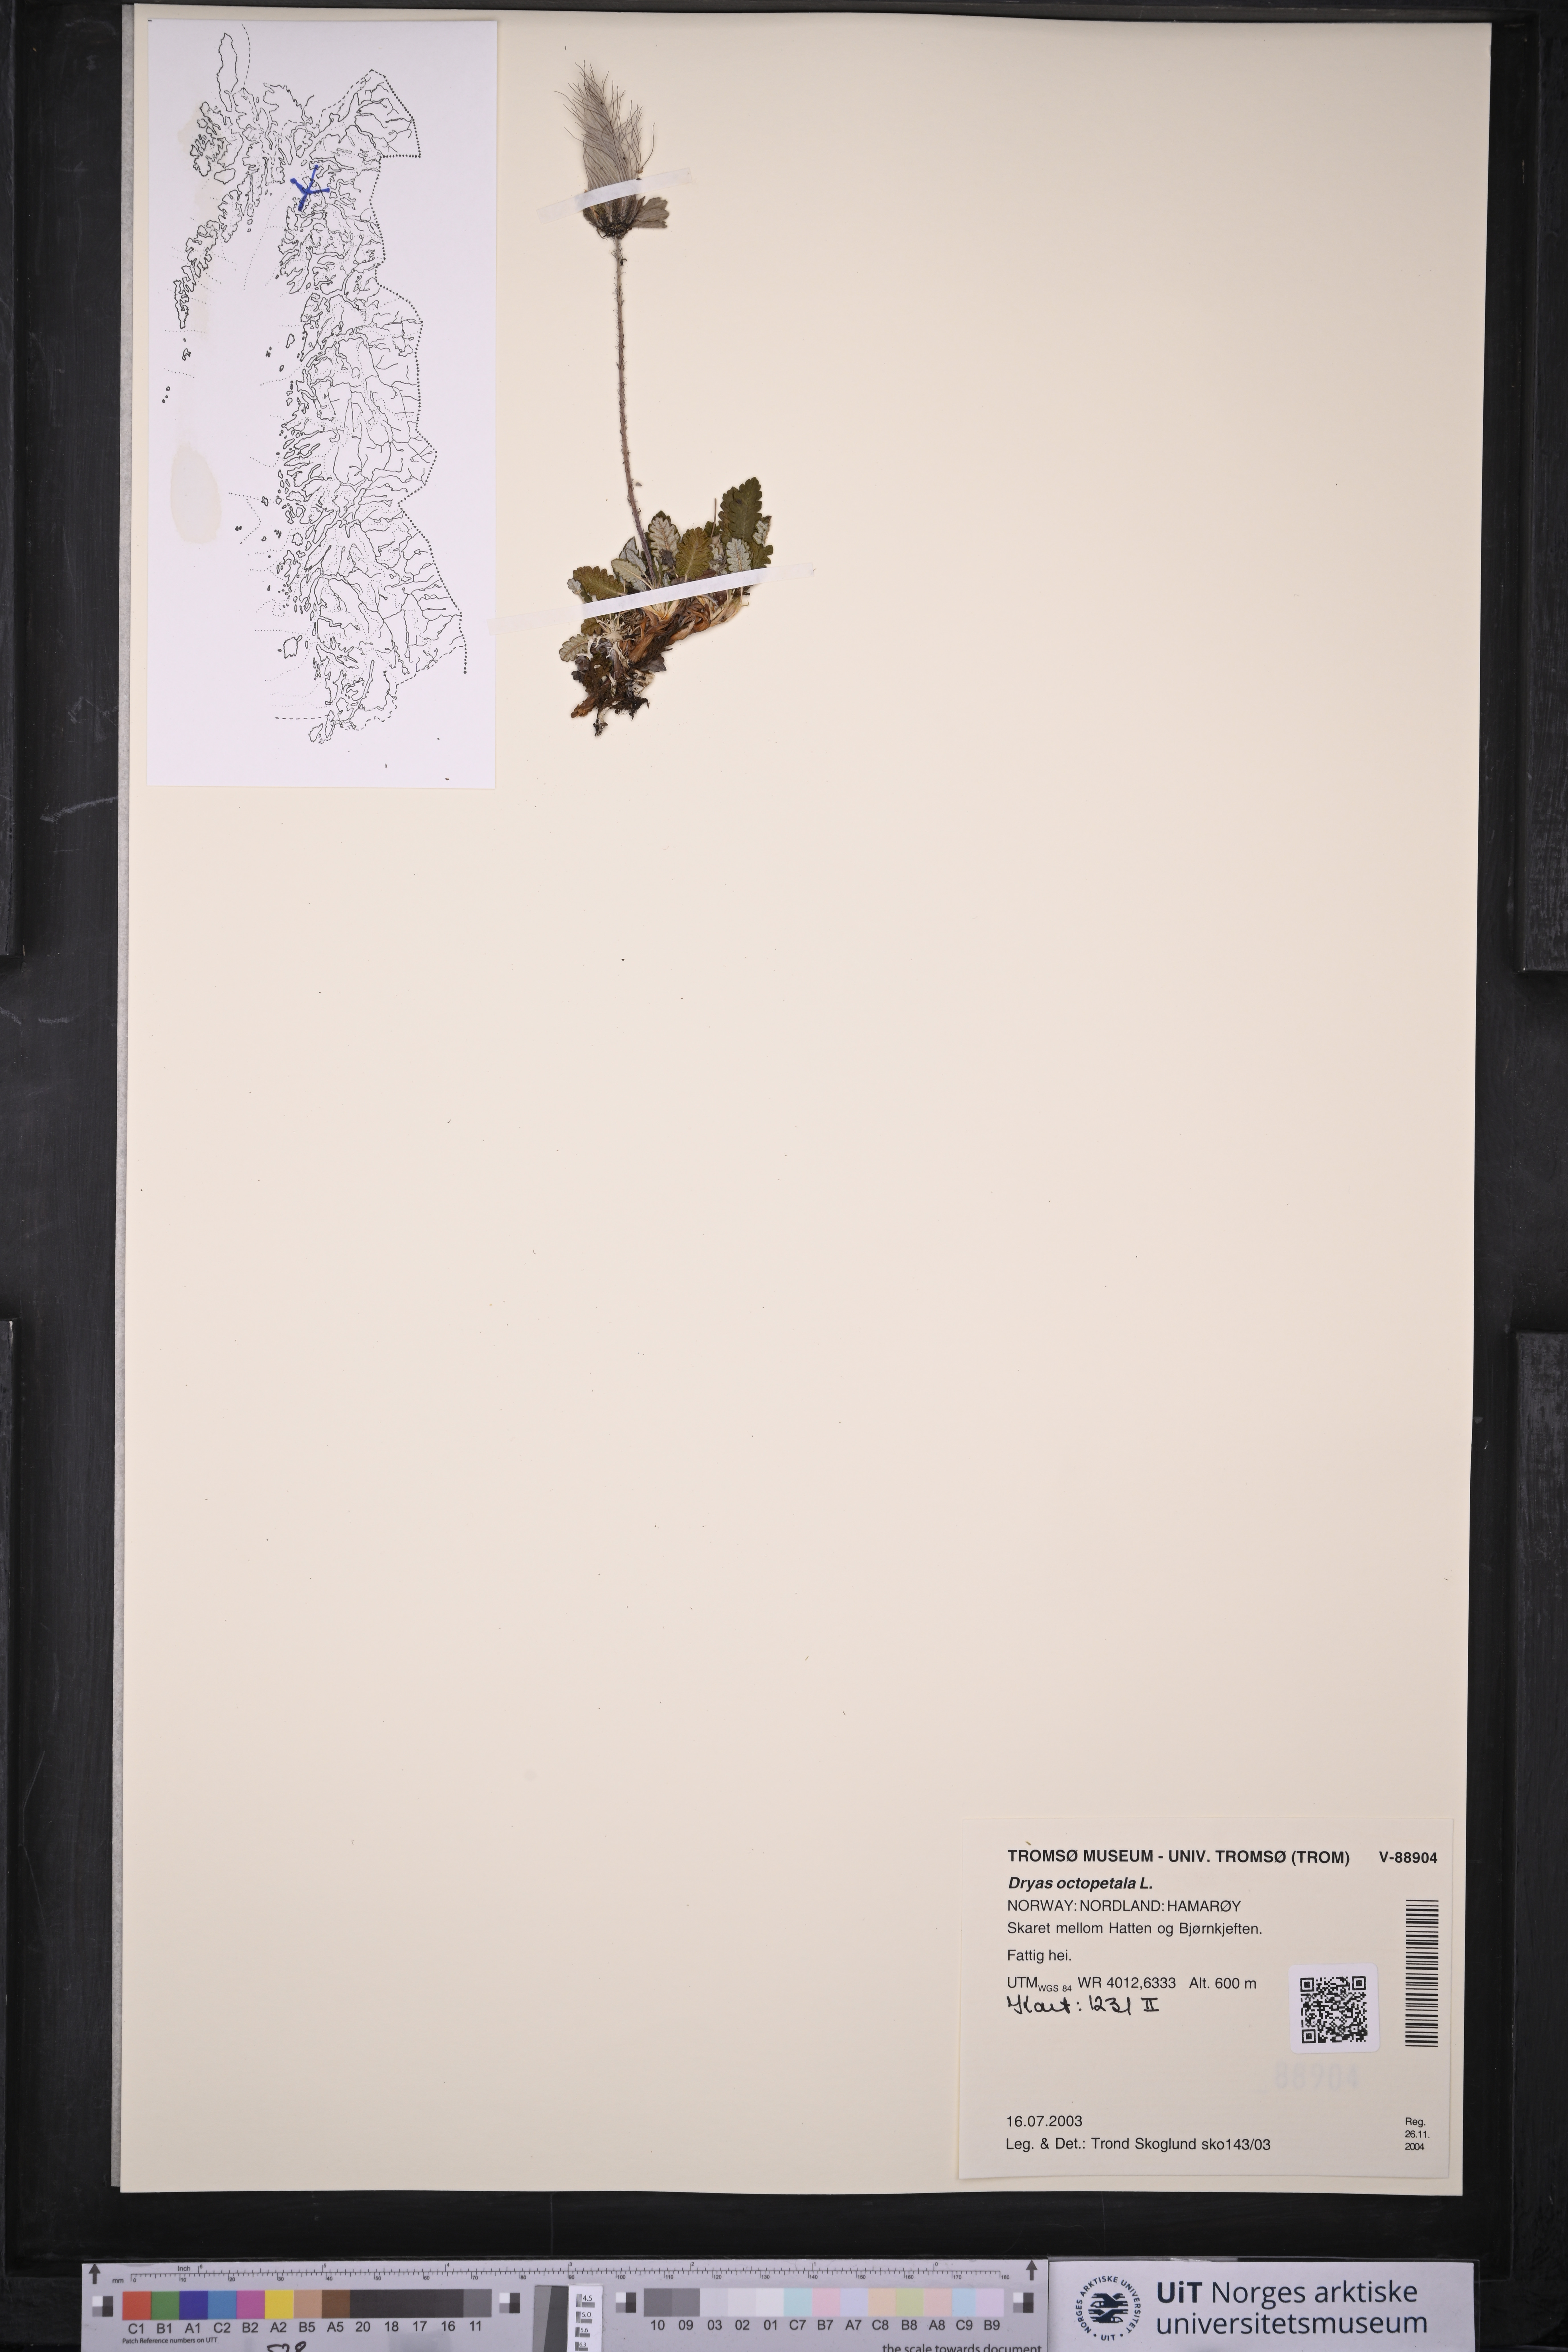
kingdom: Plantae
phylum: Tracheophyta
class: Magnoliopsida
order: Rosales
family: Rosaceae
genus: Dryas
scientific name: Dryas octopetala
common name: Eight-petal mountain-avens
